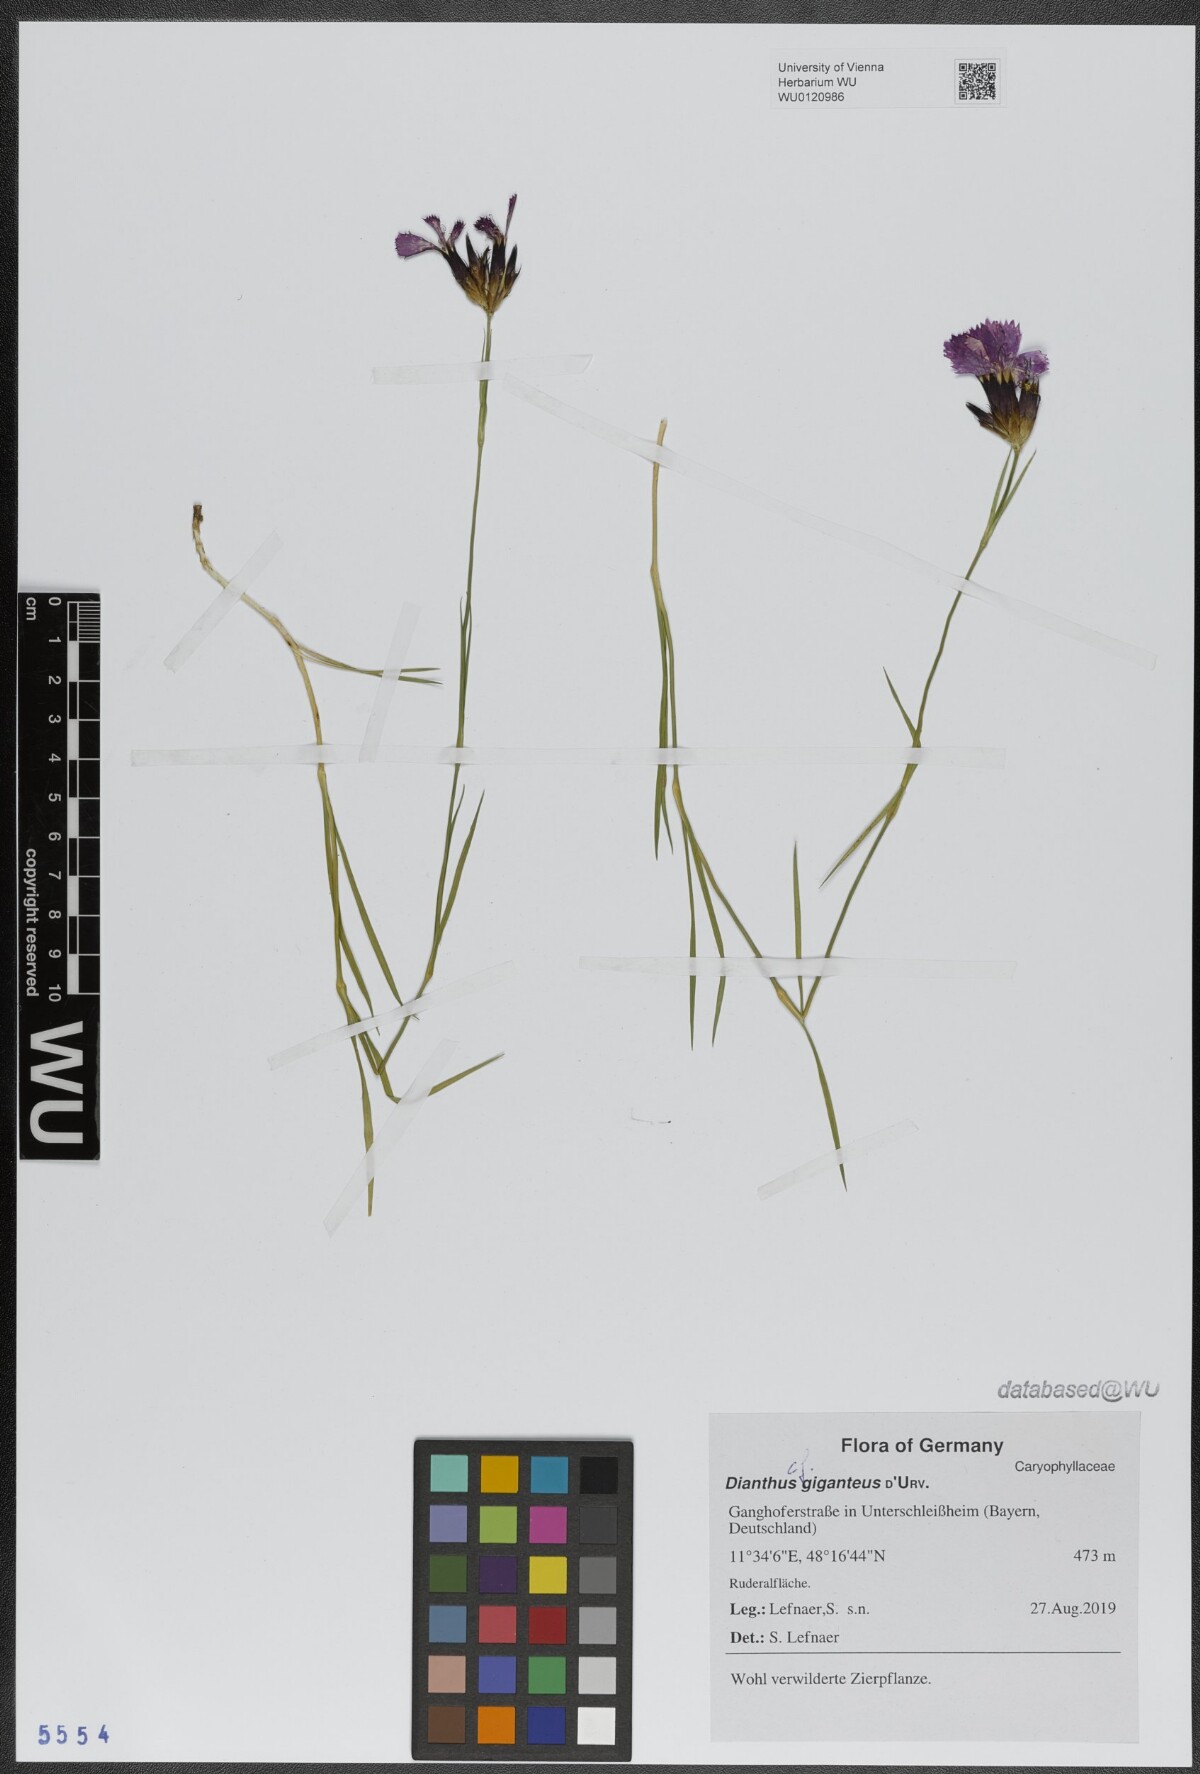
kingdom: Plantae
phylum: Tracheophyta
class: Magnoliopsida
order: Caryophyllales
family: Caryophyllaceae
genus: Dianthus
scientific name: Dianthus giganteus
